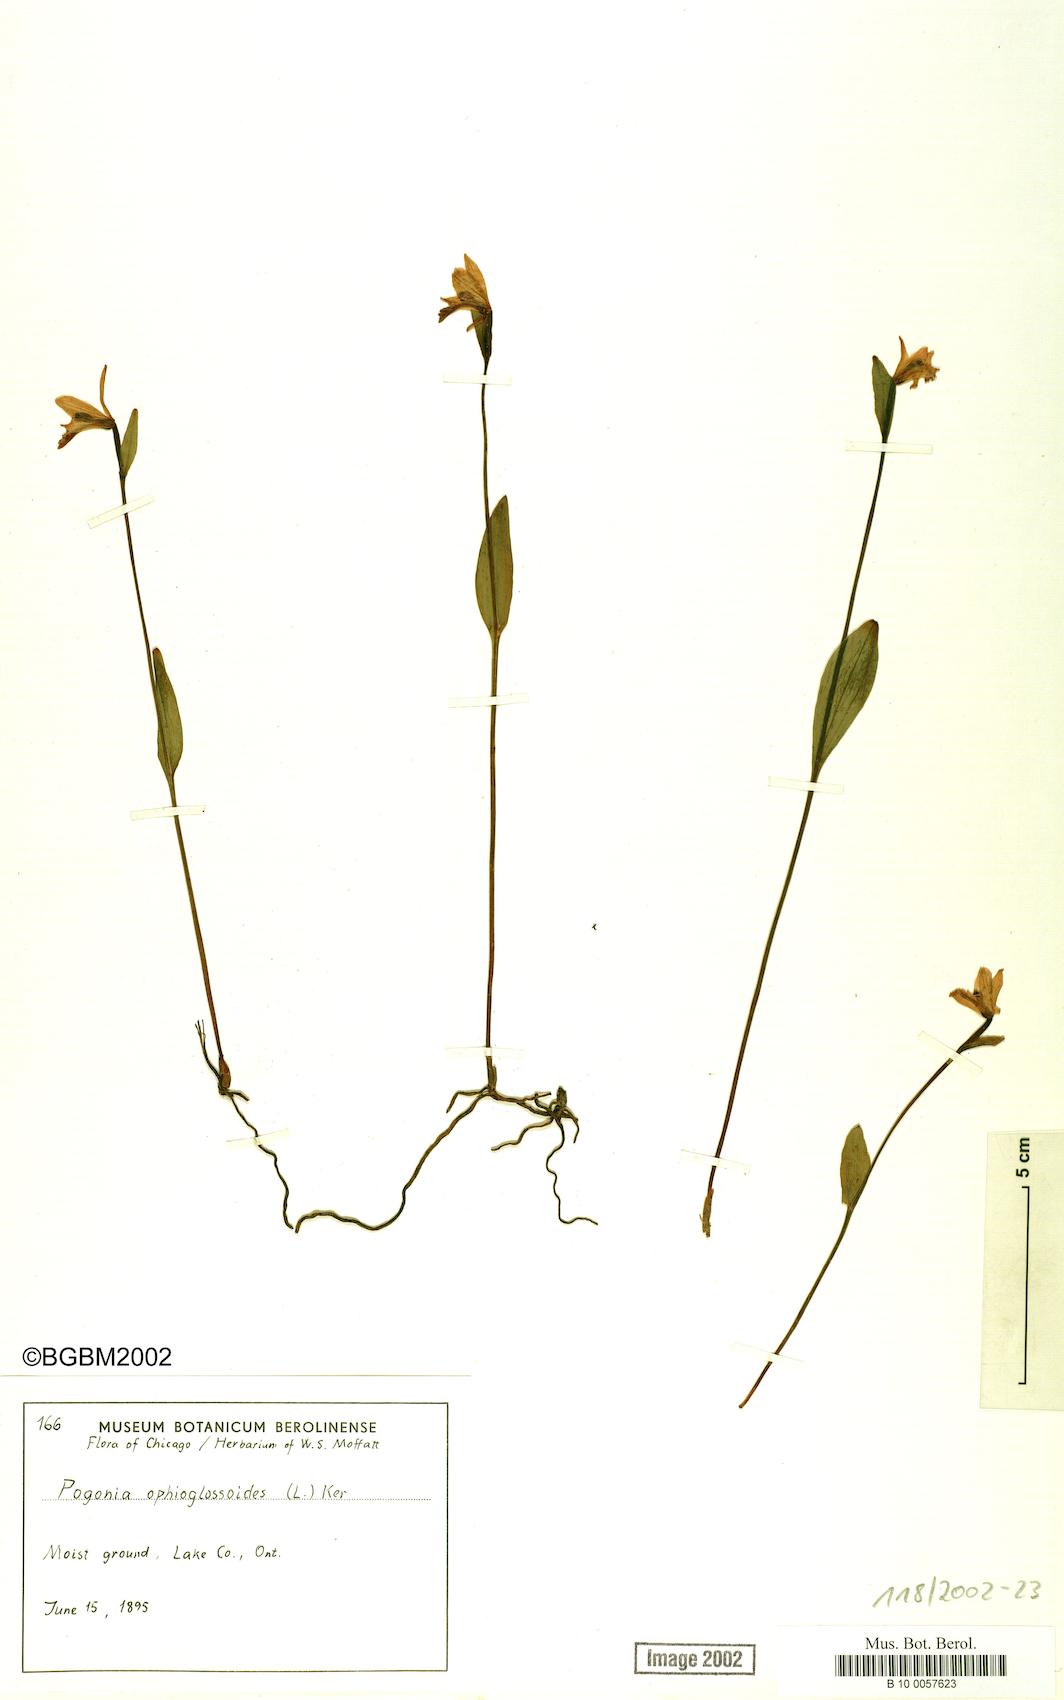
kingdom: Plantae
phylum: Tracheophyta
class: Liliopsida
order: Asparagales
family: Orchidaceae
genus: Pogonia
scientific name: Pogonia ophioglossoides
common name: Rose pogonia
